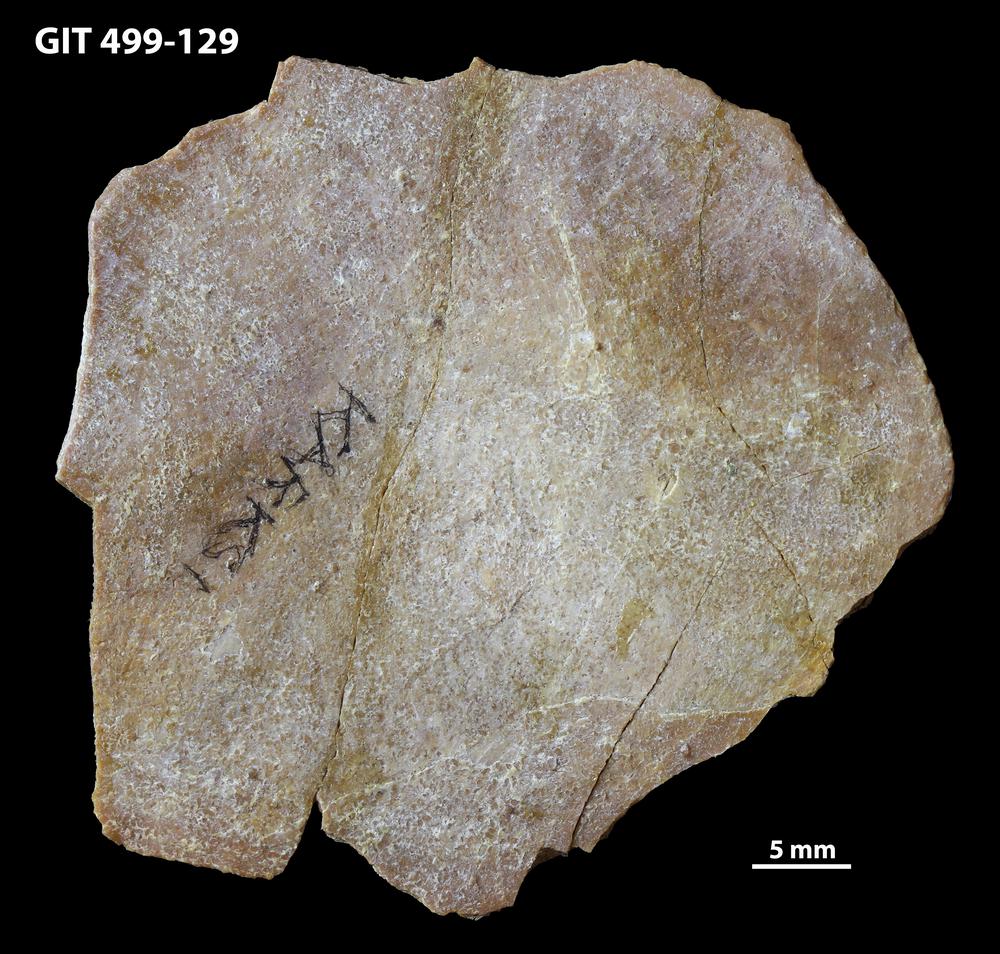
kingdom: Animalia
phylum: Chordata
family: Holoptychiidae
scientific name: Holoptychiidae
